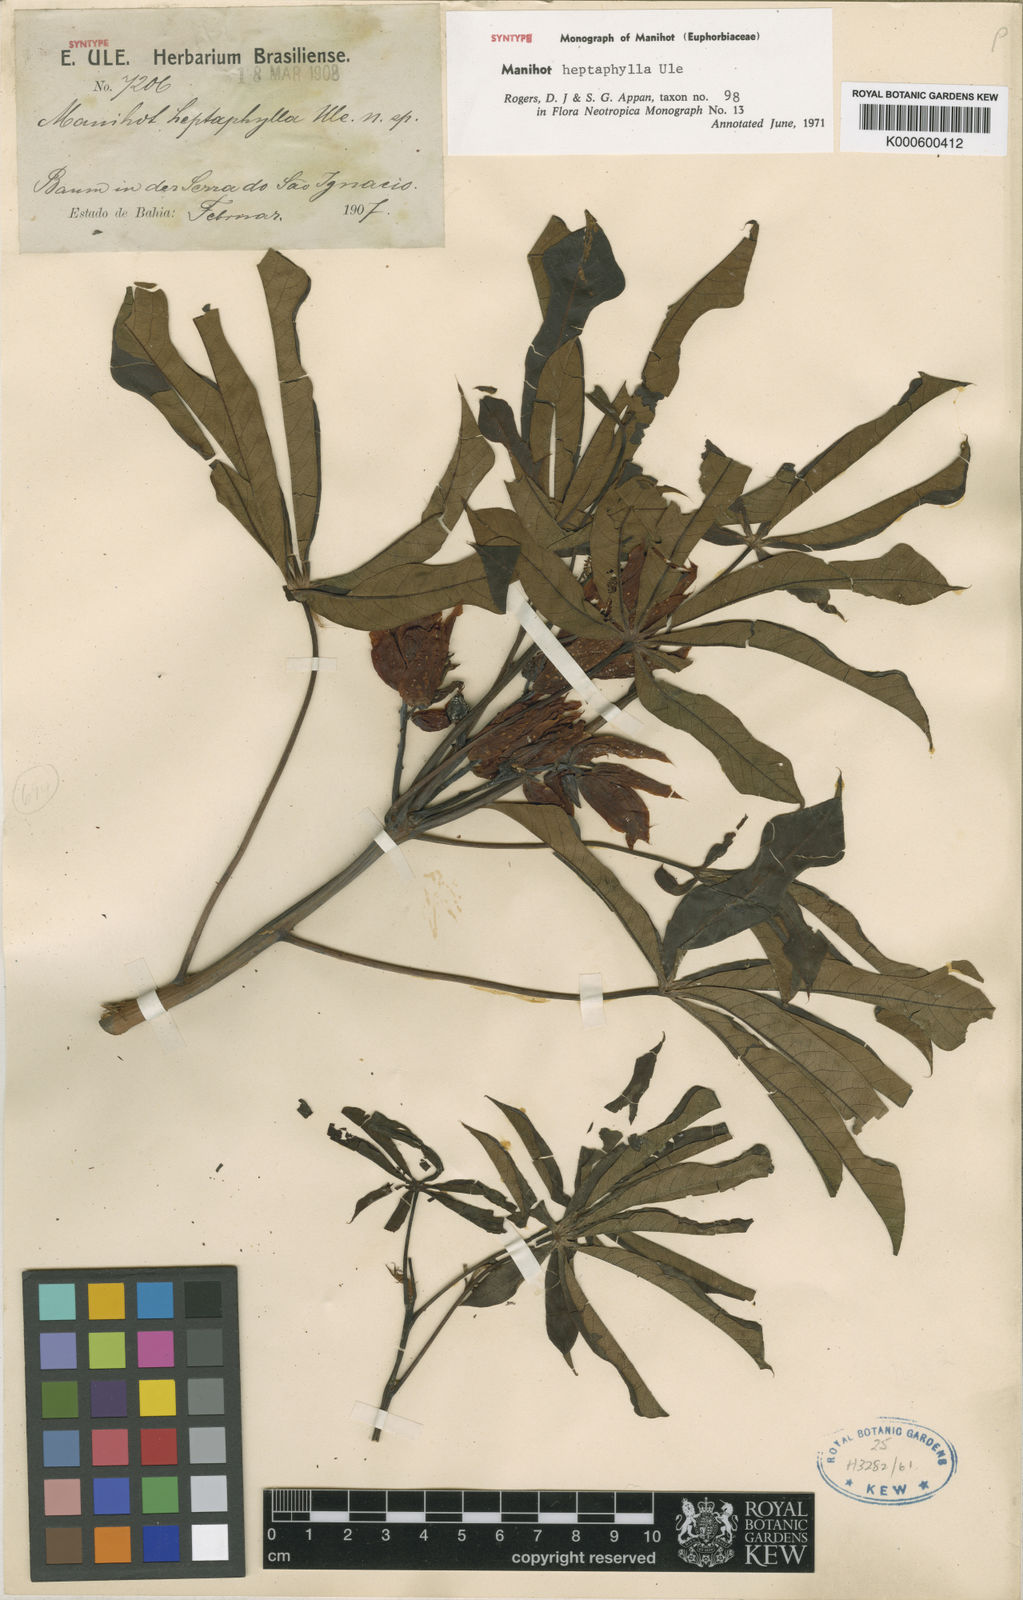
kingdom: Plantae
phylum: Tracheophyta
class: Magnoliopsida
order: Malpighiales
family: Euphorbiaceae
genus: Manihot
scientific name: Manihot heptaphylla
